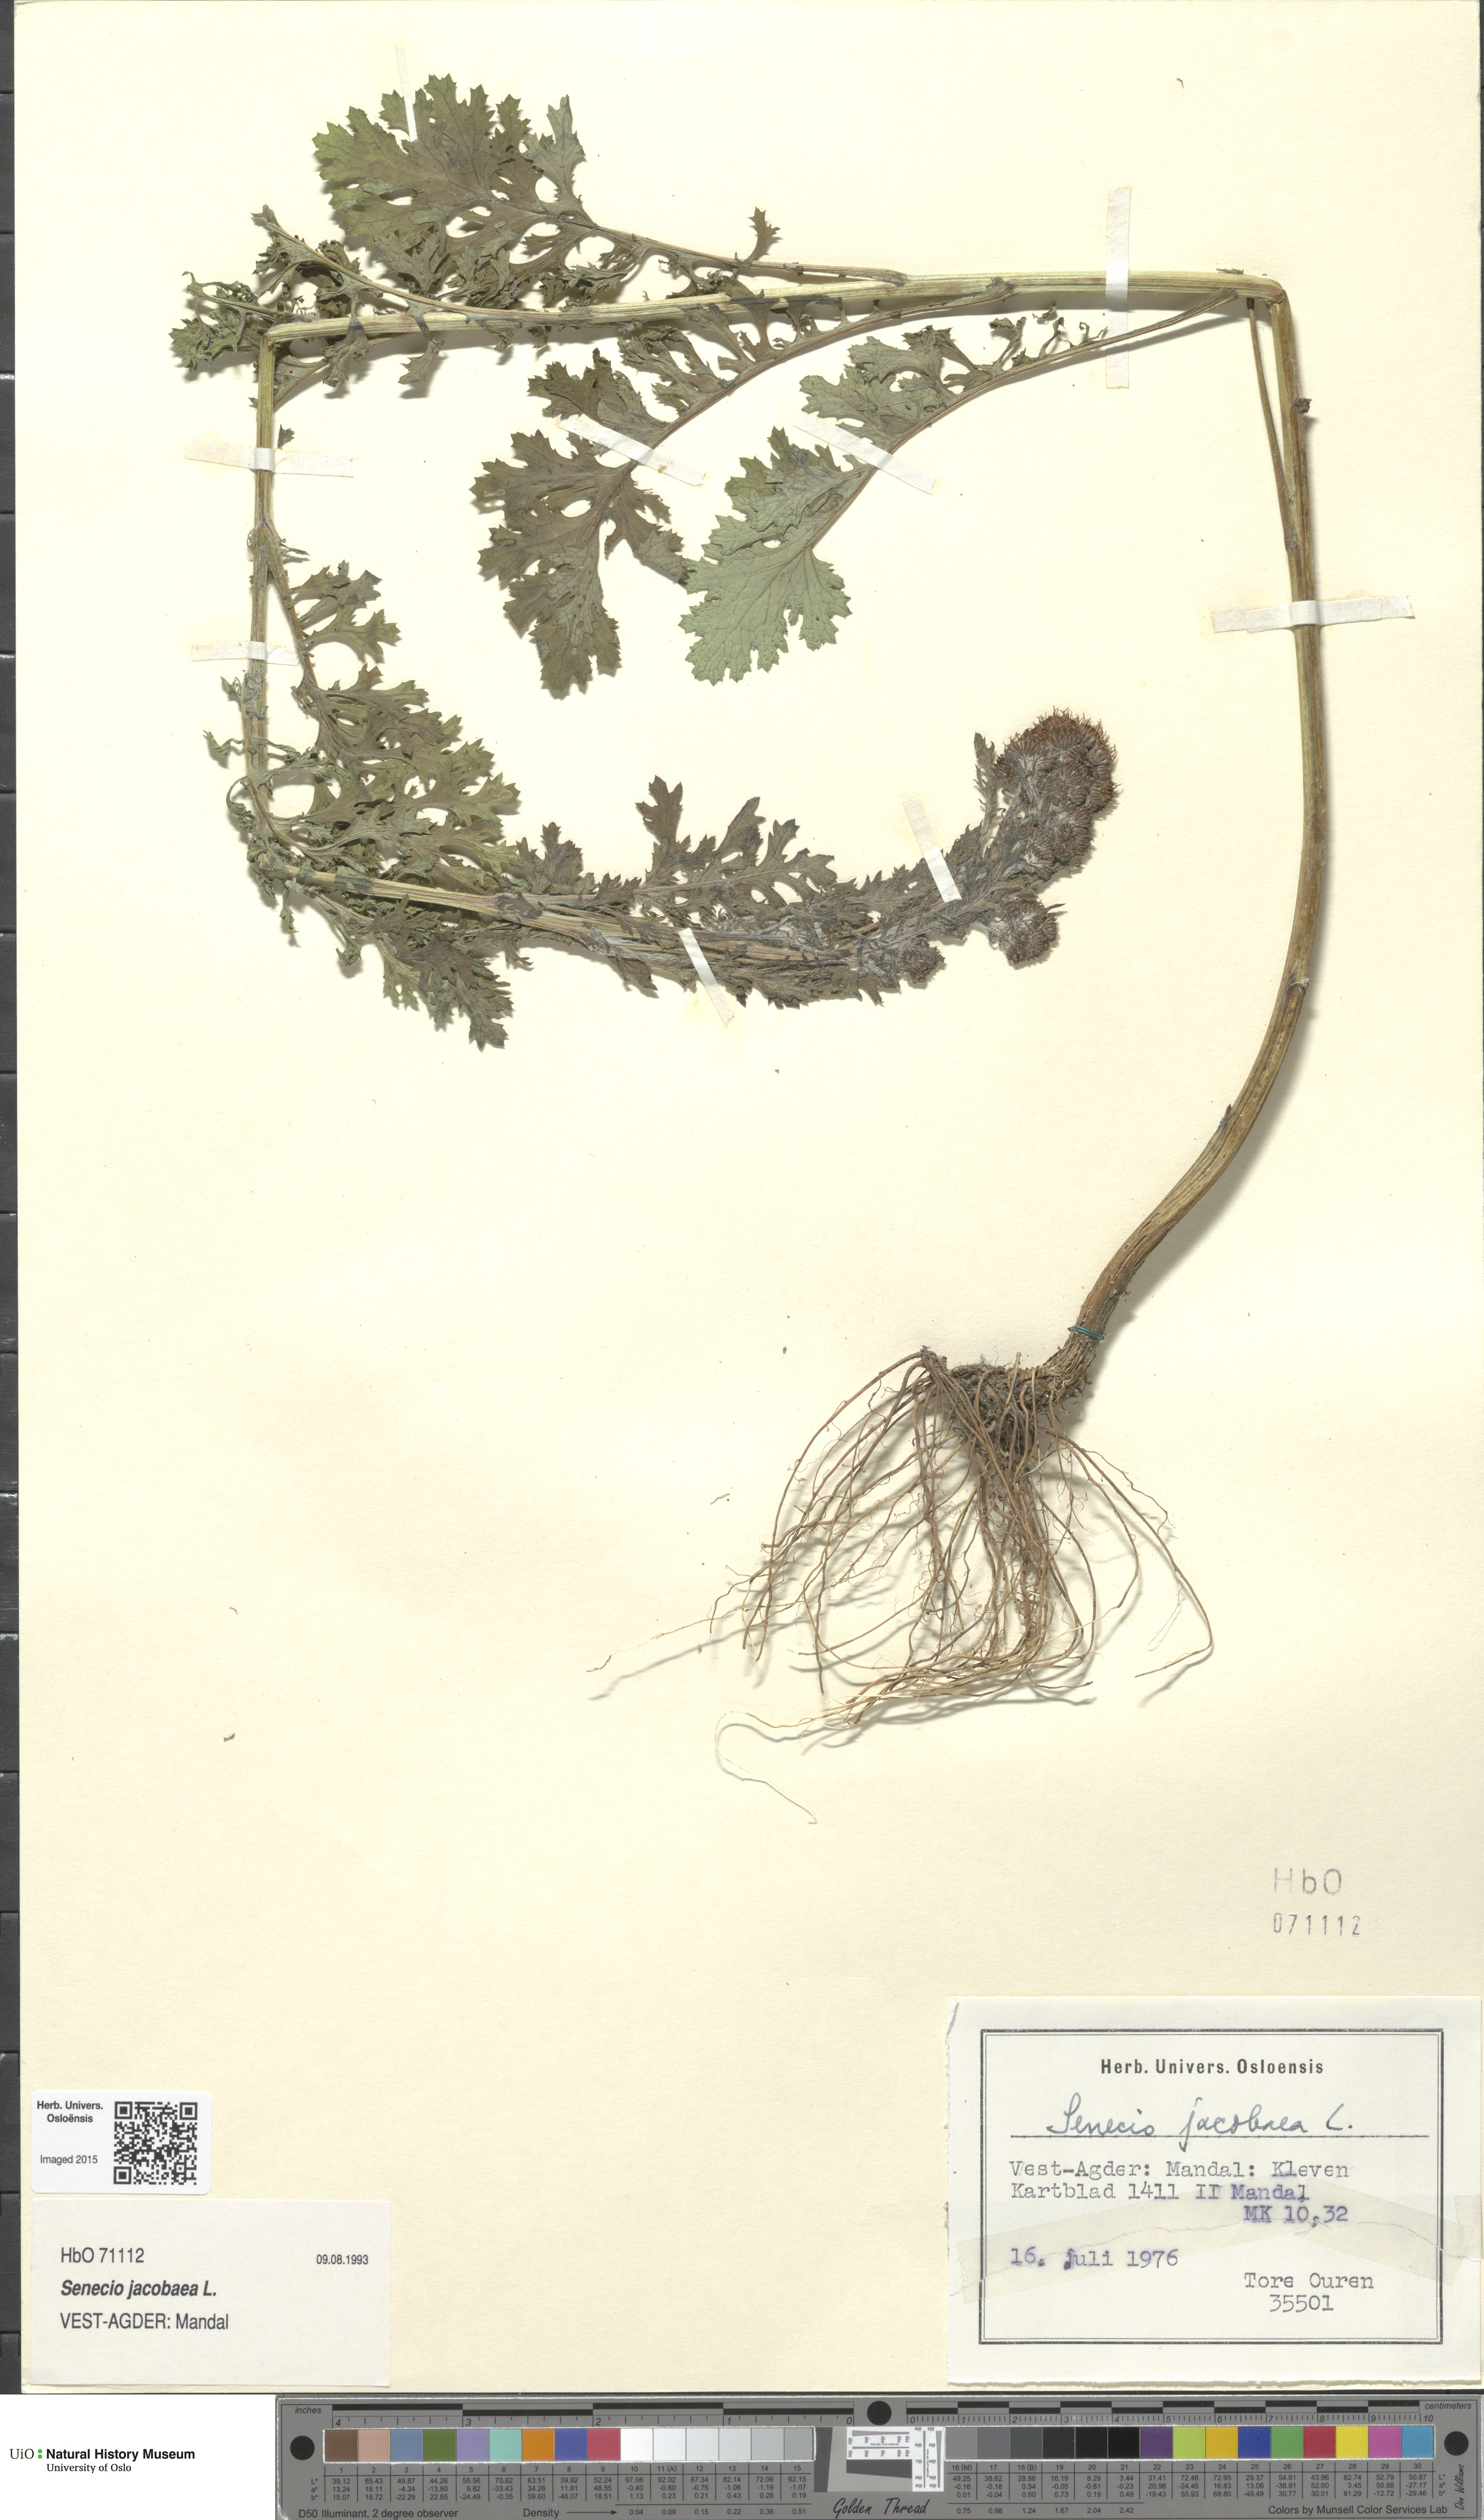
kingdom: Plantae
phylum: Tracheophyta
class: Magnoliopsida
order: Asterales
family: Asteraceae
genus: Jacobaea
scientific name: Jacobaea vulgaris
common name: Stinking willie
